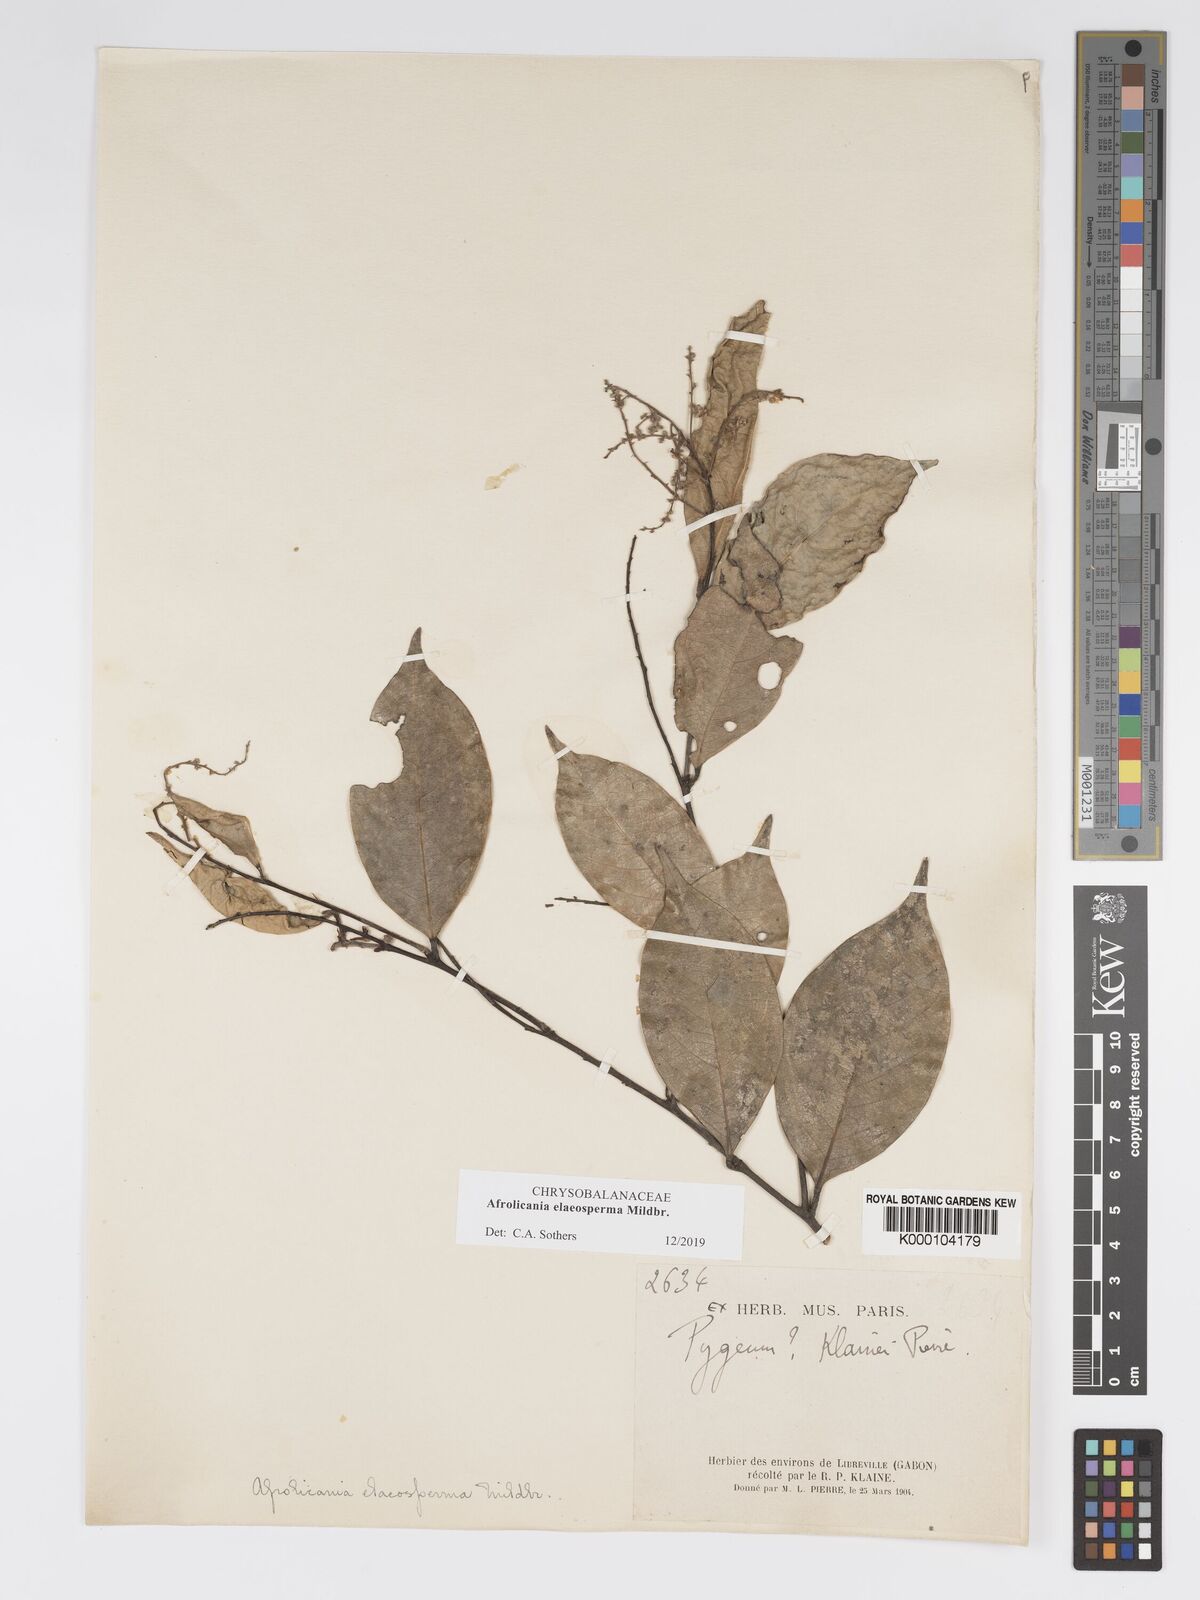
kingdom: Plantae
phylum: Tracheophyta
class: Magnoliopsida
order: Malpighiales
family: Chrysobalanaceae
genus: Afrolicania
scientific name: Afrolicania elaeosperma
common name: Nikko
